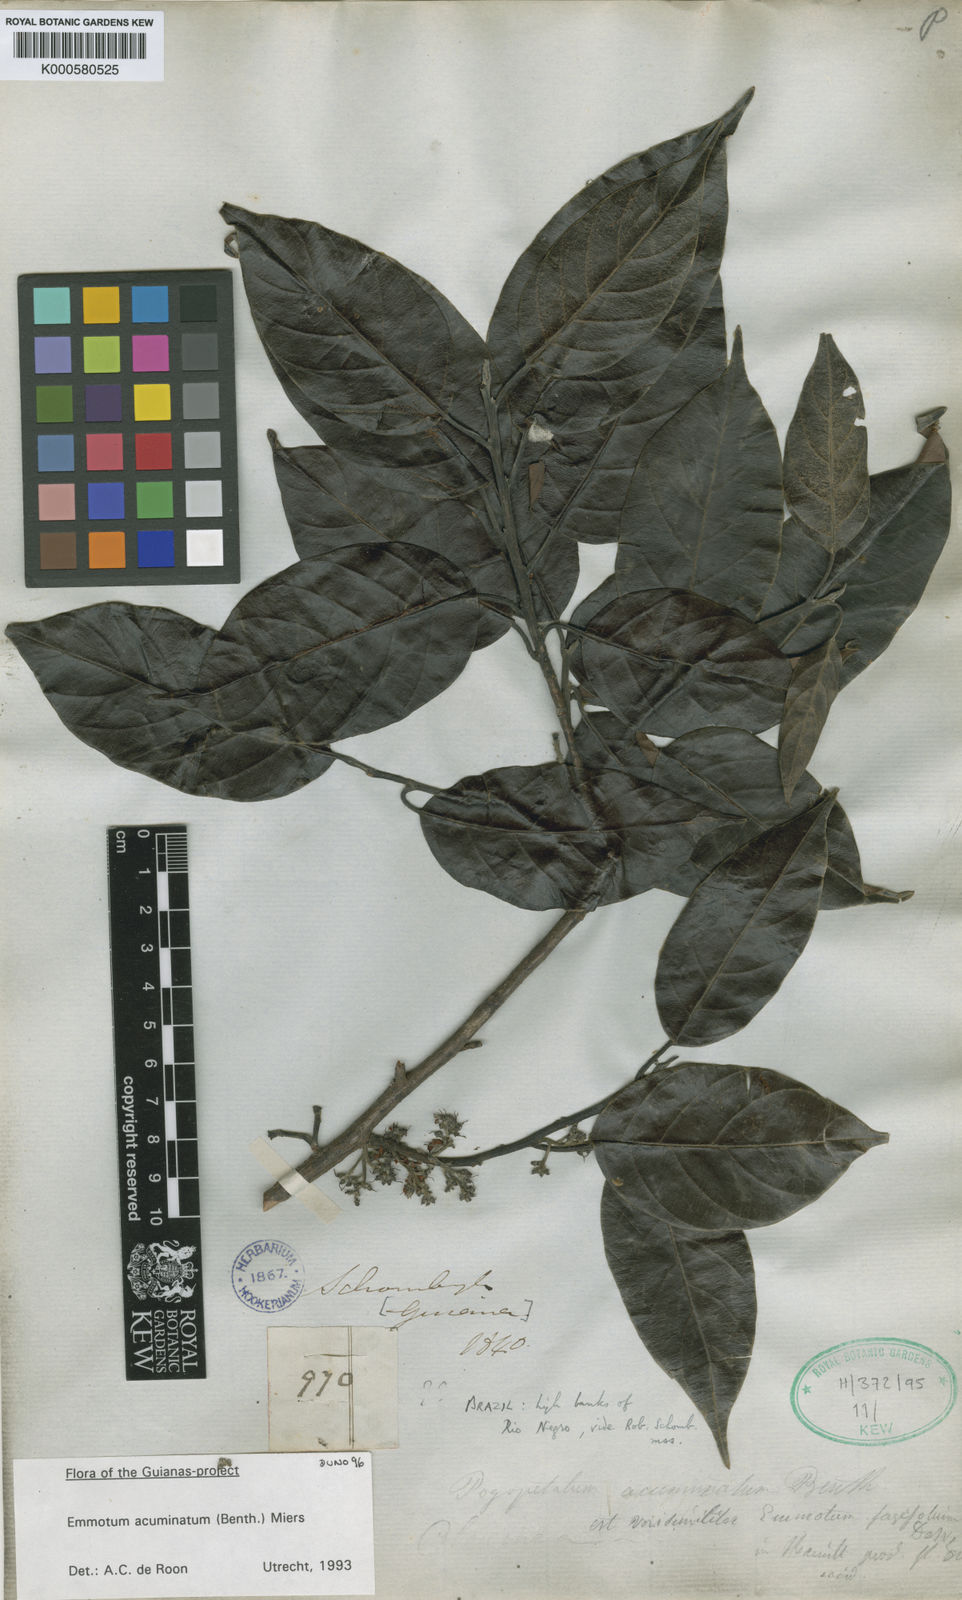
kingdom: Plantae
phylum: Tracheophyta
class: Magnoliopsida
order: Metteniusales
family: Metteniusaceae
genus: Emmotum
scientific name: Emmotum acuminatum
